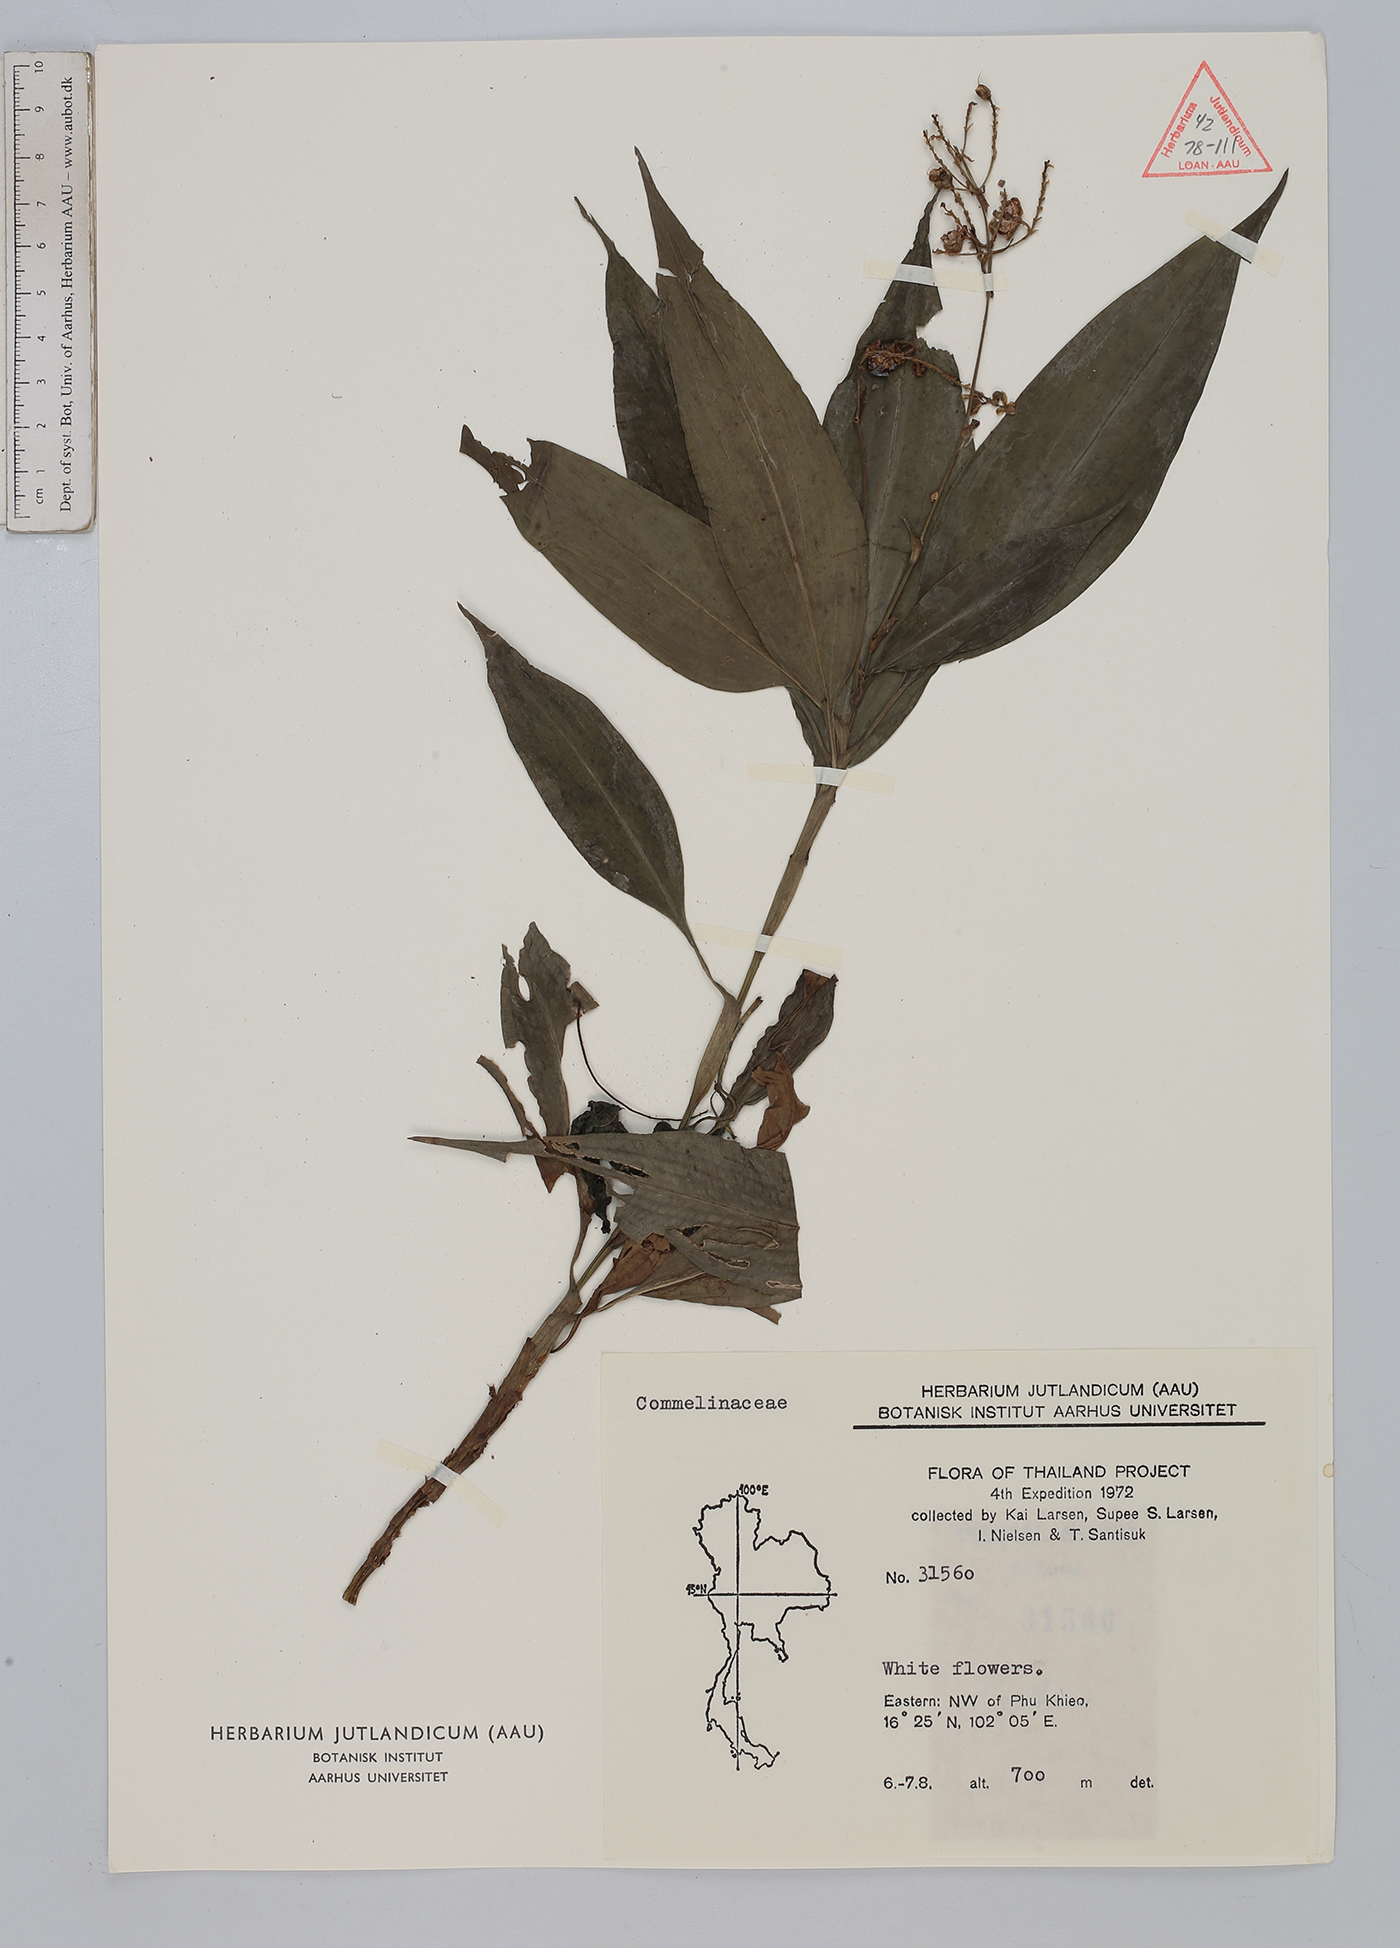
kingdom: Plantae
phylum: Tracheophyta
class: Liliopsida
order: Commelinales
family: Commelinaceae
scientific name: Commelinaceae
